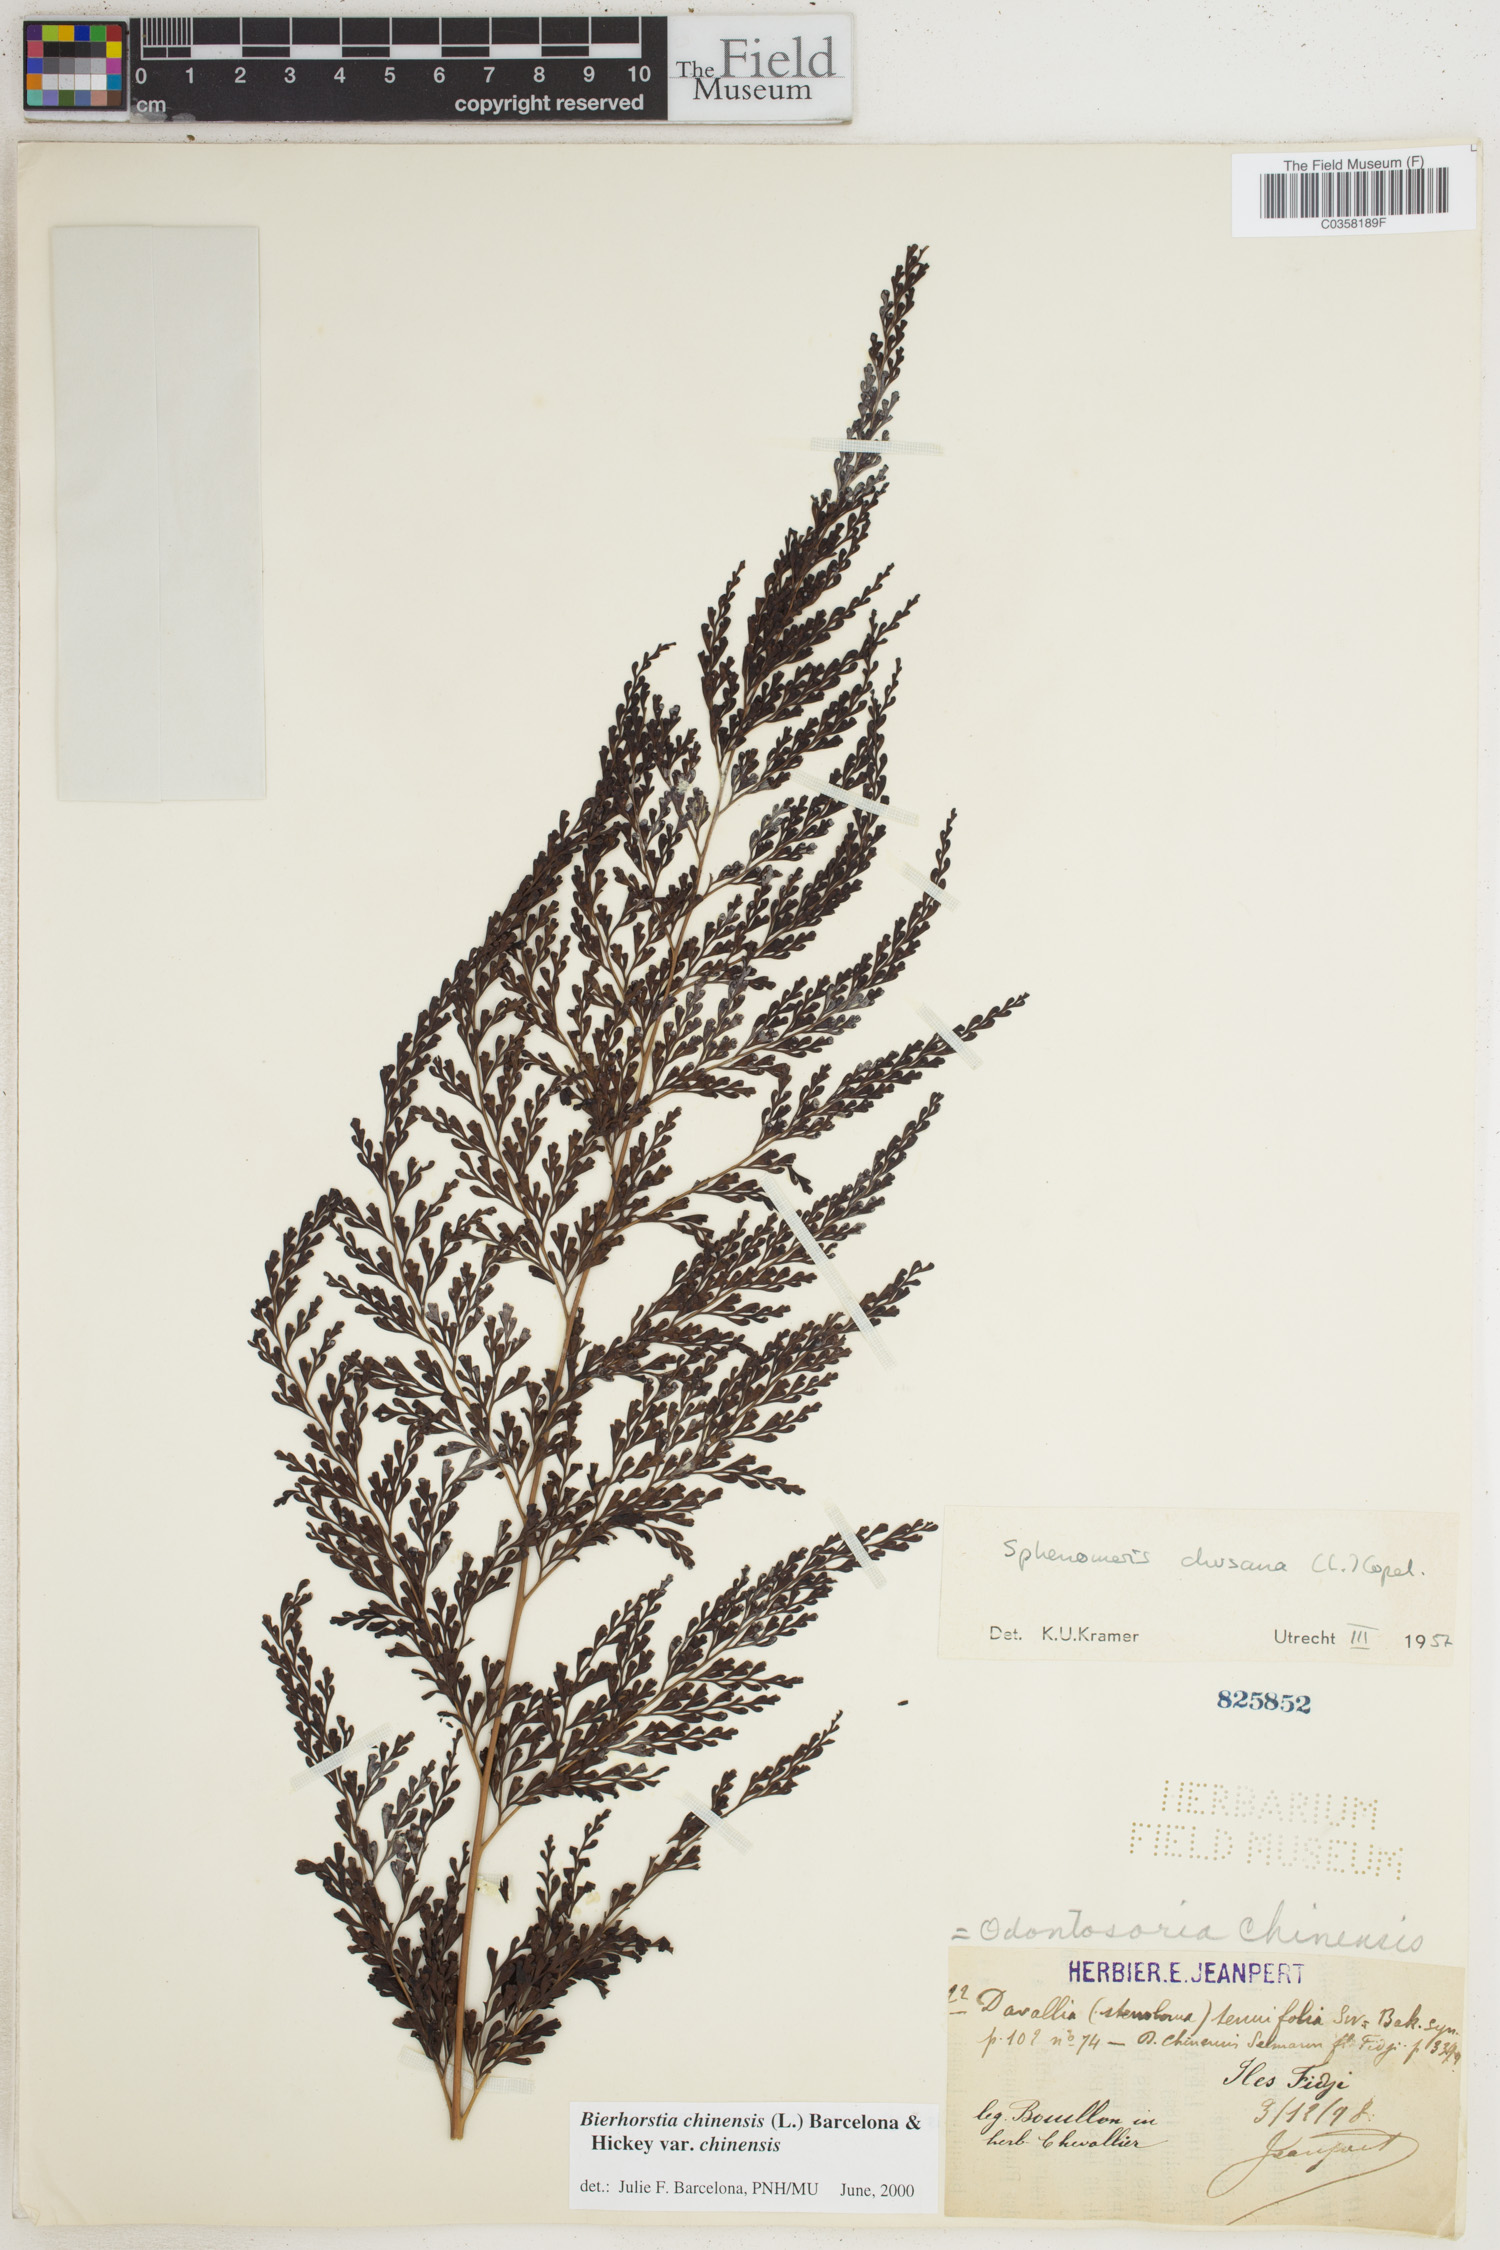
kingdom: Plantae
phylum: Tracheophyta
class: Polypodiopsida
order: Polypodiales
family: Lindsaeaceae
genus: Odontosoria
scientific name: Odontosoria chinensis
